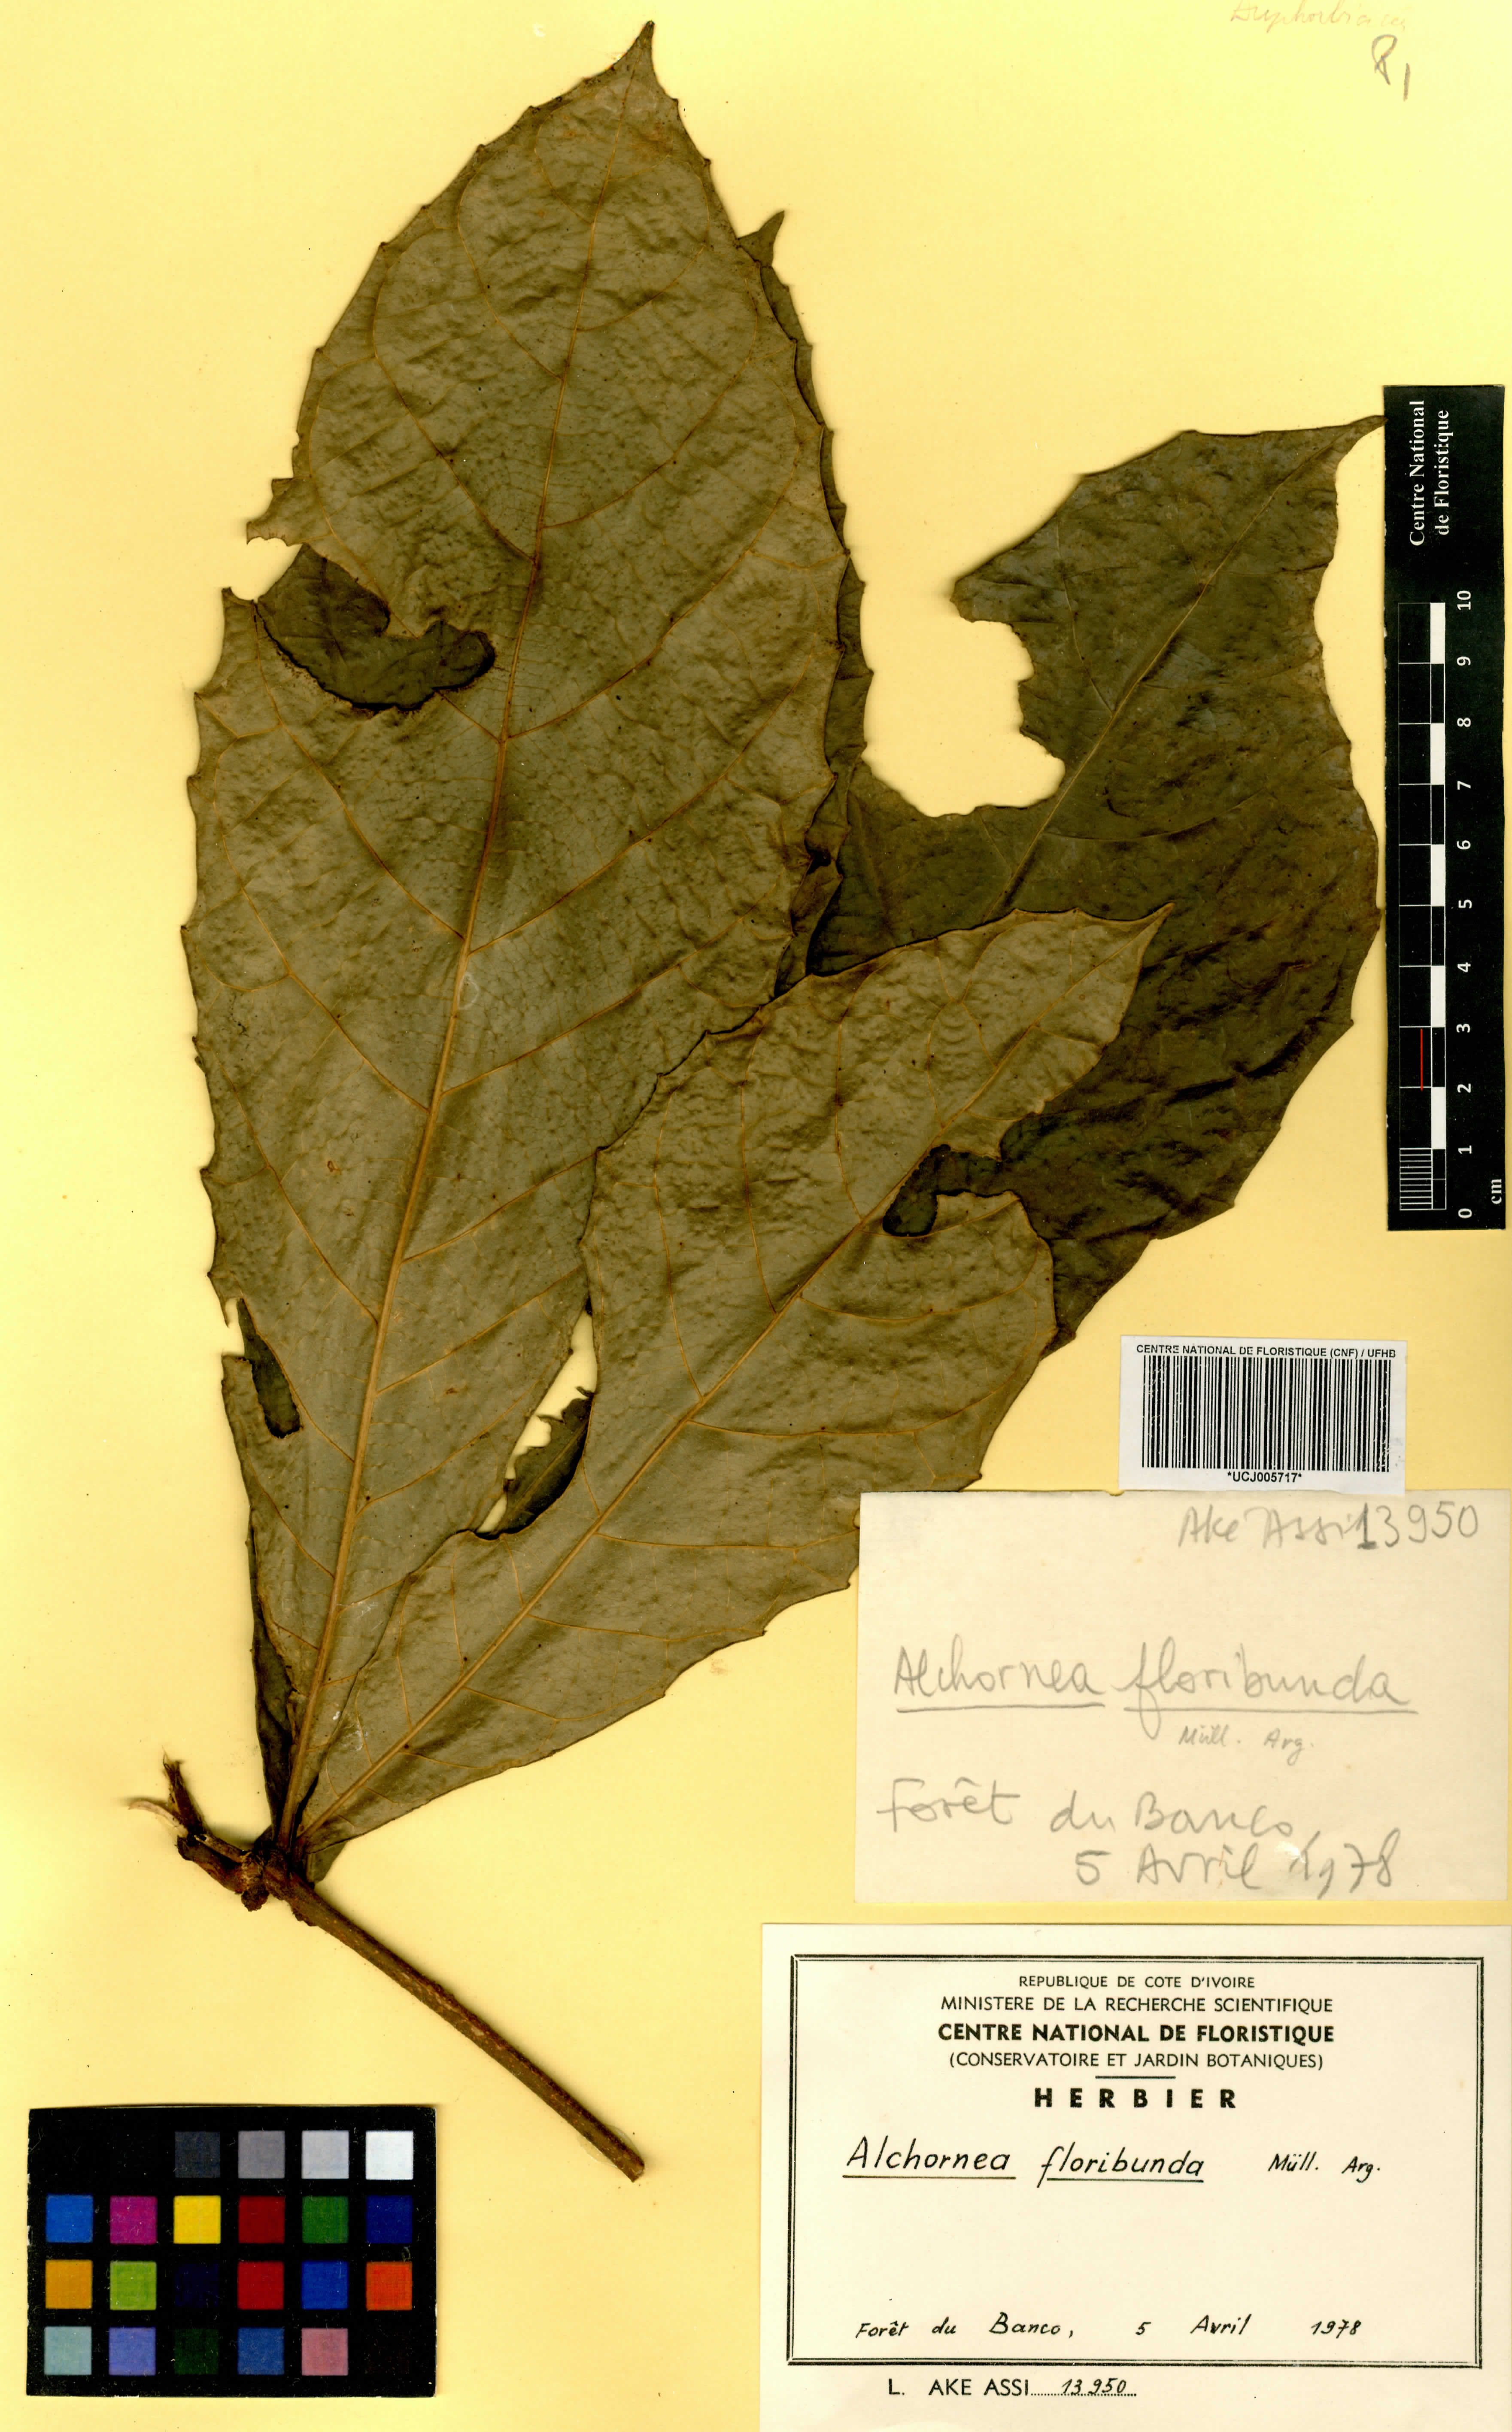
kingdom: Plantae
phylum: Tracheophyta
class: Magnoliopsida
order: Malpighiales
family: Euphorbiaceae
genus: Alchornea
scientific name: Alchornea floribunda
